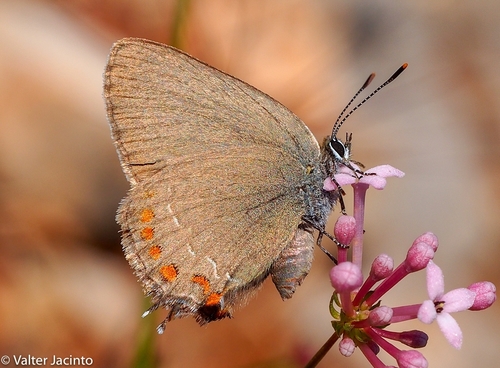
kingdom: Animalia
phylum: Arthropoda
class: Insecta
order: Lepidoptera
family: Lycaenidae
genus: Fixsenia
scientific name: Fixsenia esculi
